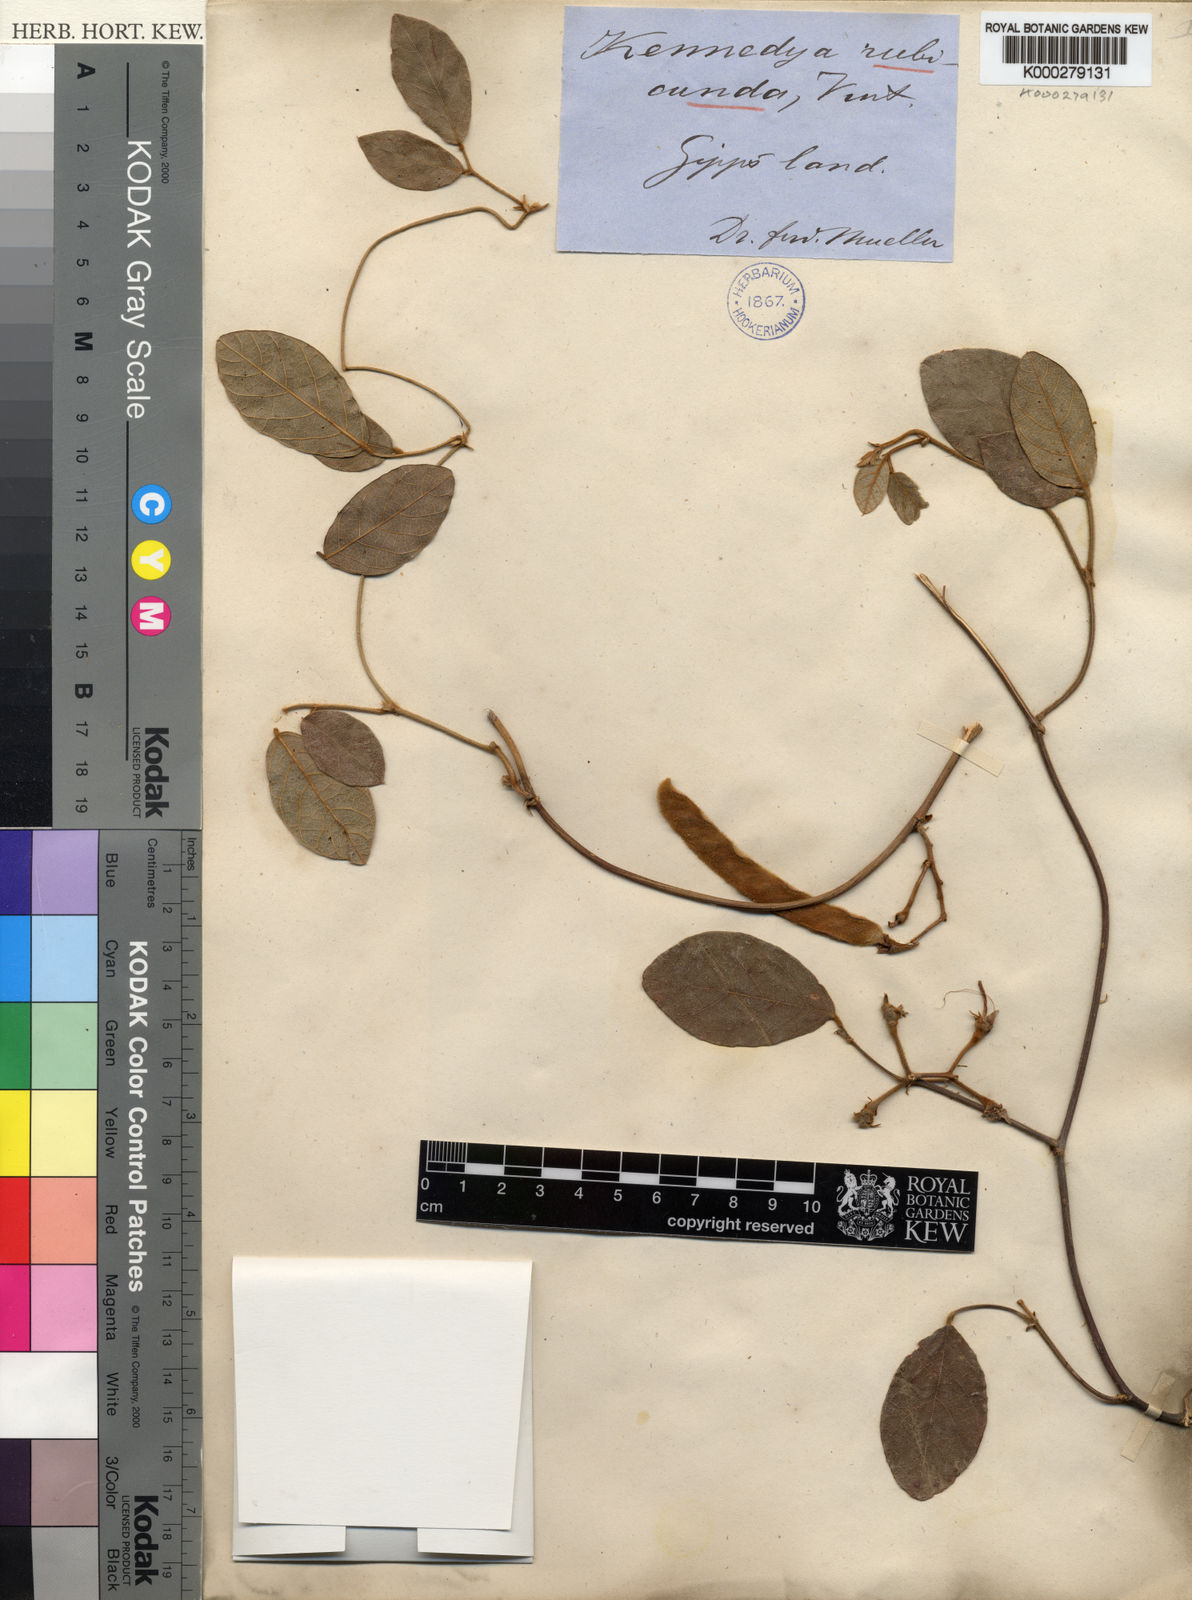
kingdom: Plantae
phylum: Tracheophyta
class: Magnoliopsida
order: Fabales
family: Fabaceae
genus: Kennedia
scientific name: Kennedia rubicunda
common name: Red kennedy-pea
